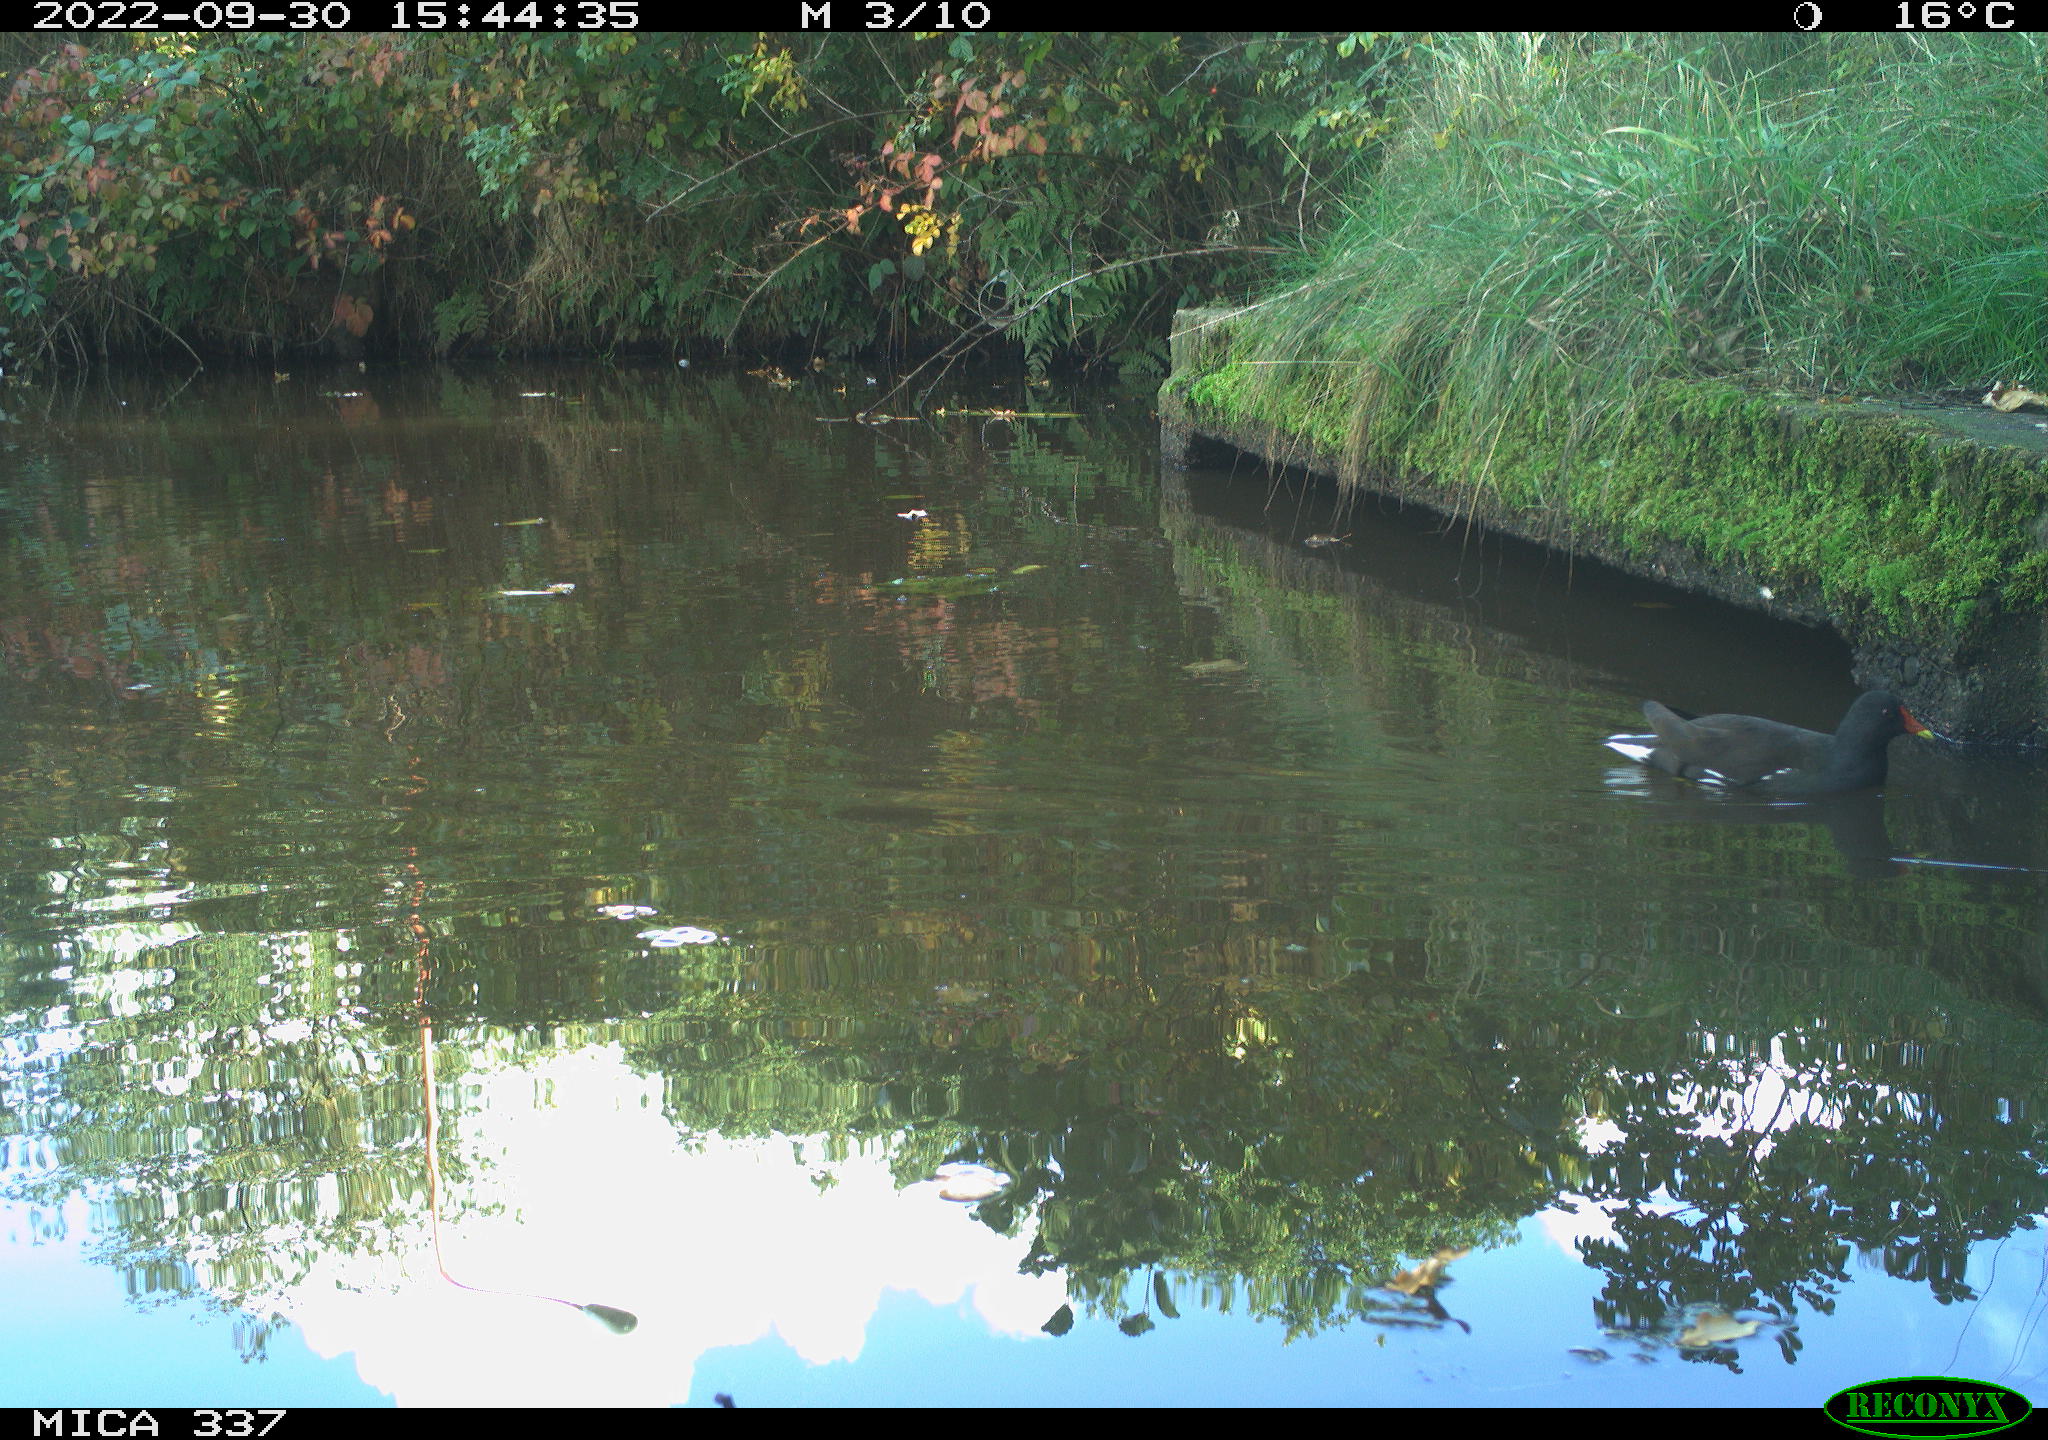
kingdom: Animalia
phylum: Chordata
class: Aves
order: Gruiformes
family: Rallidae
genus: Gallinula
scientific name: Gallinula chloropus
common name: Common moorhen
